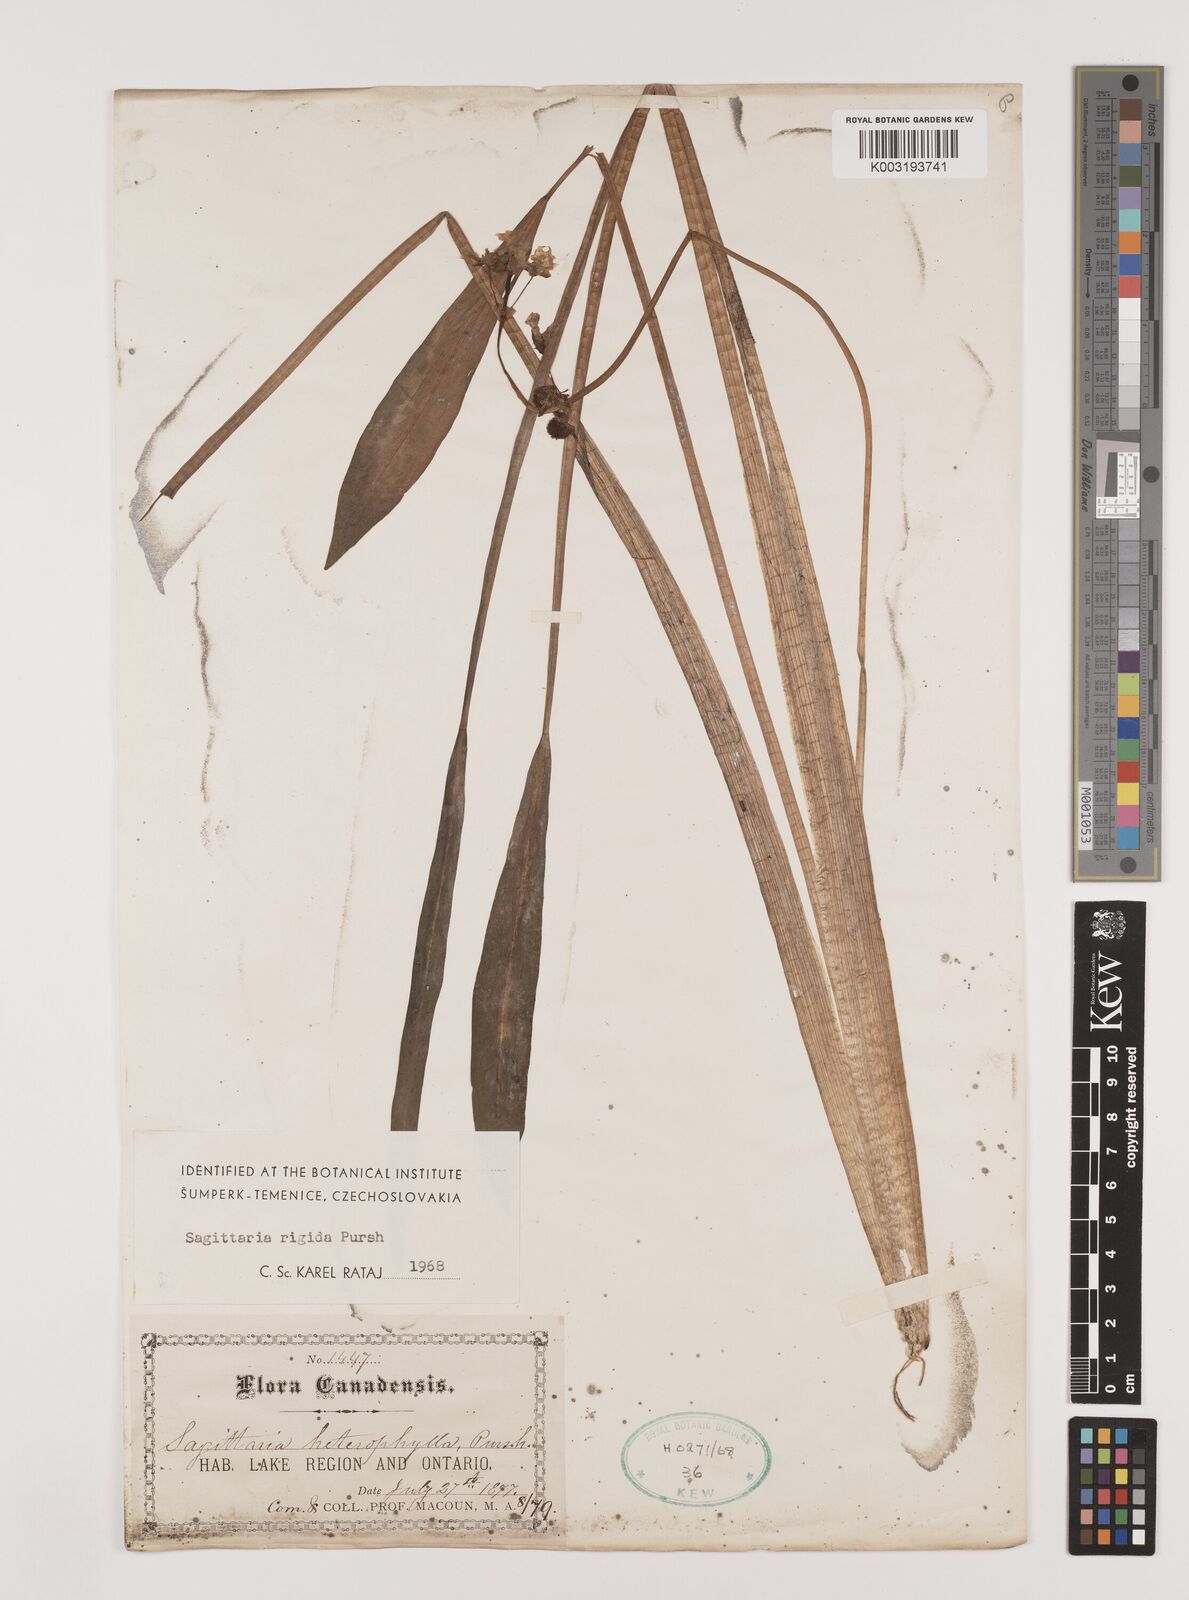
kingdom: Plantae
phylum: Tracheophyta
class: Liliopsida
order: Alismatales
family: Alismataceae
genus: Sagittaria
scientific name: Sagittaria rigida
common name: Canadian arrowhead
